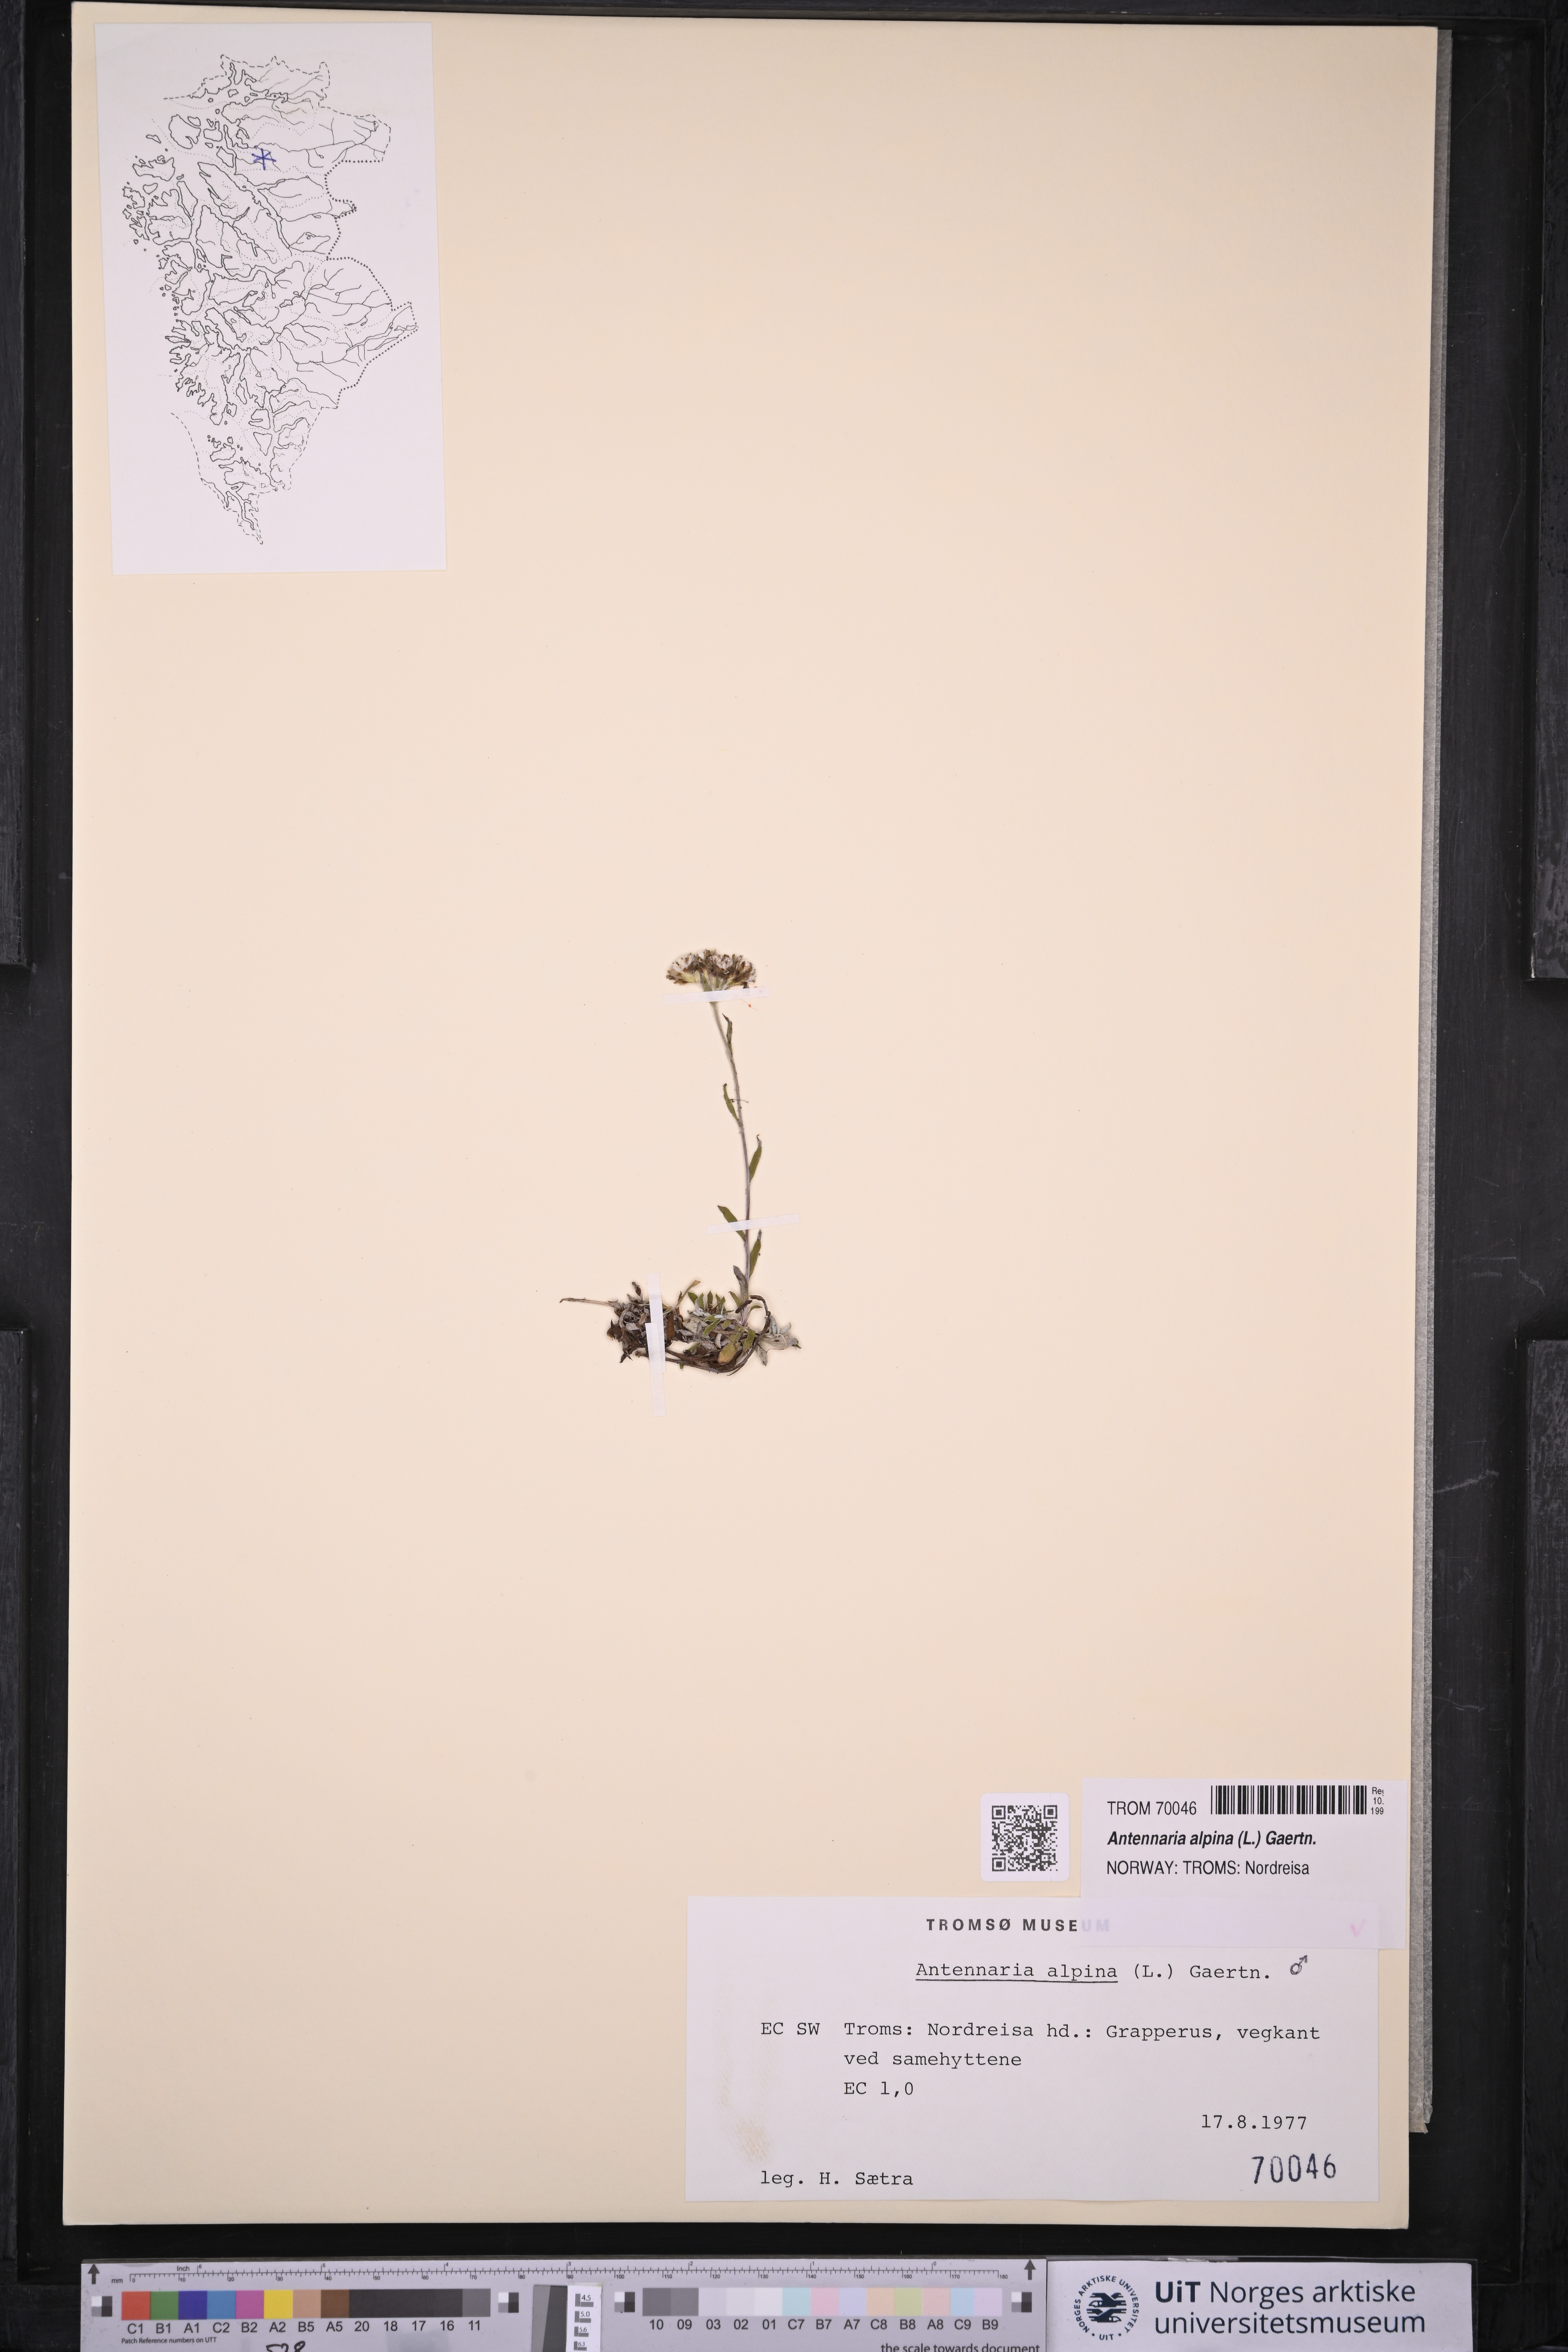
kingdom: Plantae
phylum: Tracheophyta
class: Magnoliopsida
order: Asterales
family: Asteraceae
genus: Antennaria
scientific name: Antennaria alpina
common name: Alpine pussytoes
